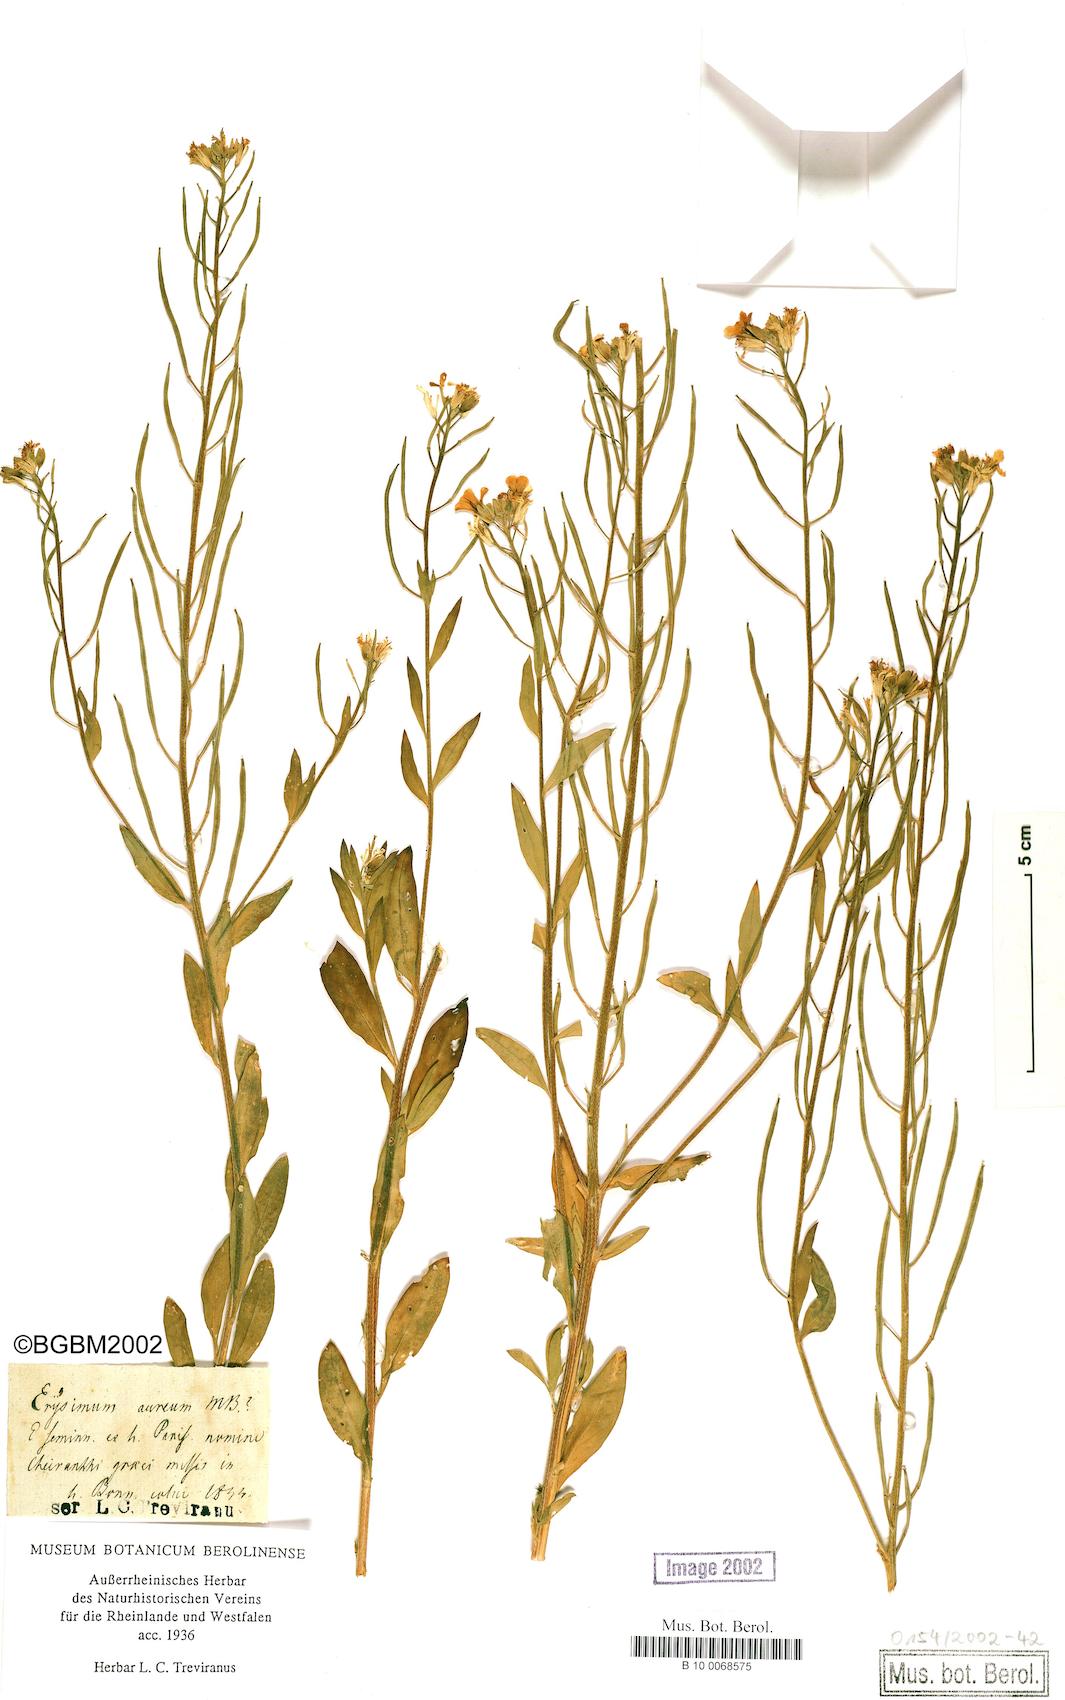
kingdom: Plantae
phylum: Tracheophyta
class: Magnoliopsida
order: Brassicales
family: Brassicaceae
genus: Erysimum
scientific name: Erysimum aureum
